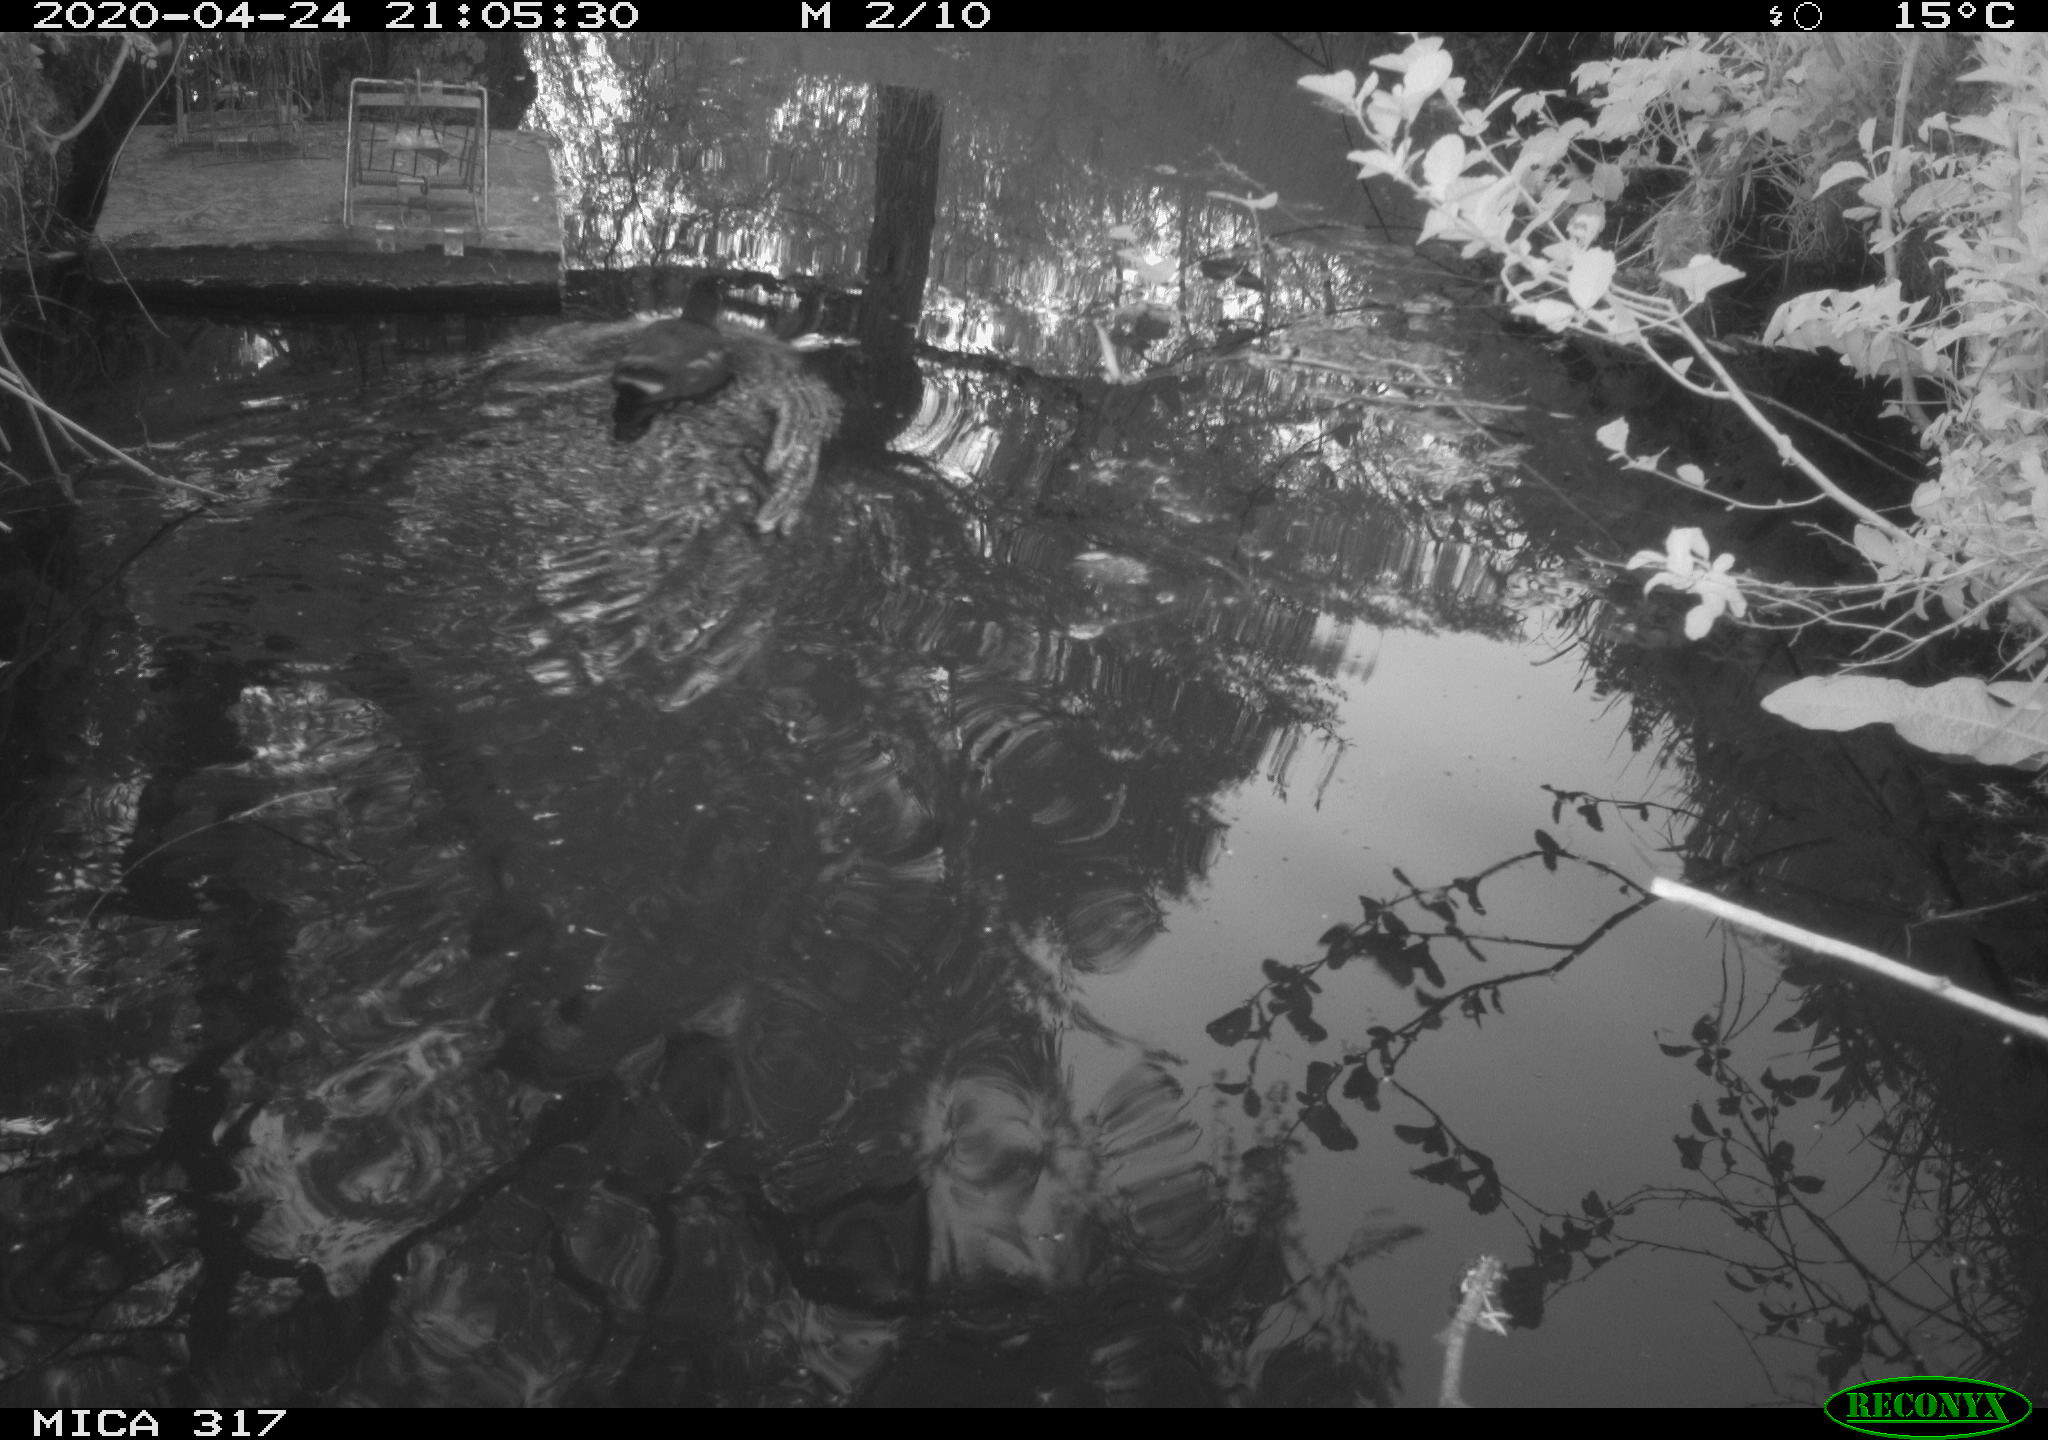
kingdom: Animalia
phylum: Chordata
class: Aves
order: Gruiformes
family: Rallidae
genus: Gallinula
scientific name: Gallinula chloropus
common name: Common moorhen
